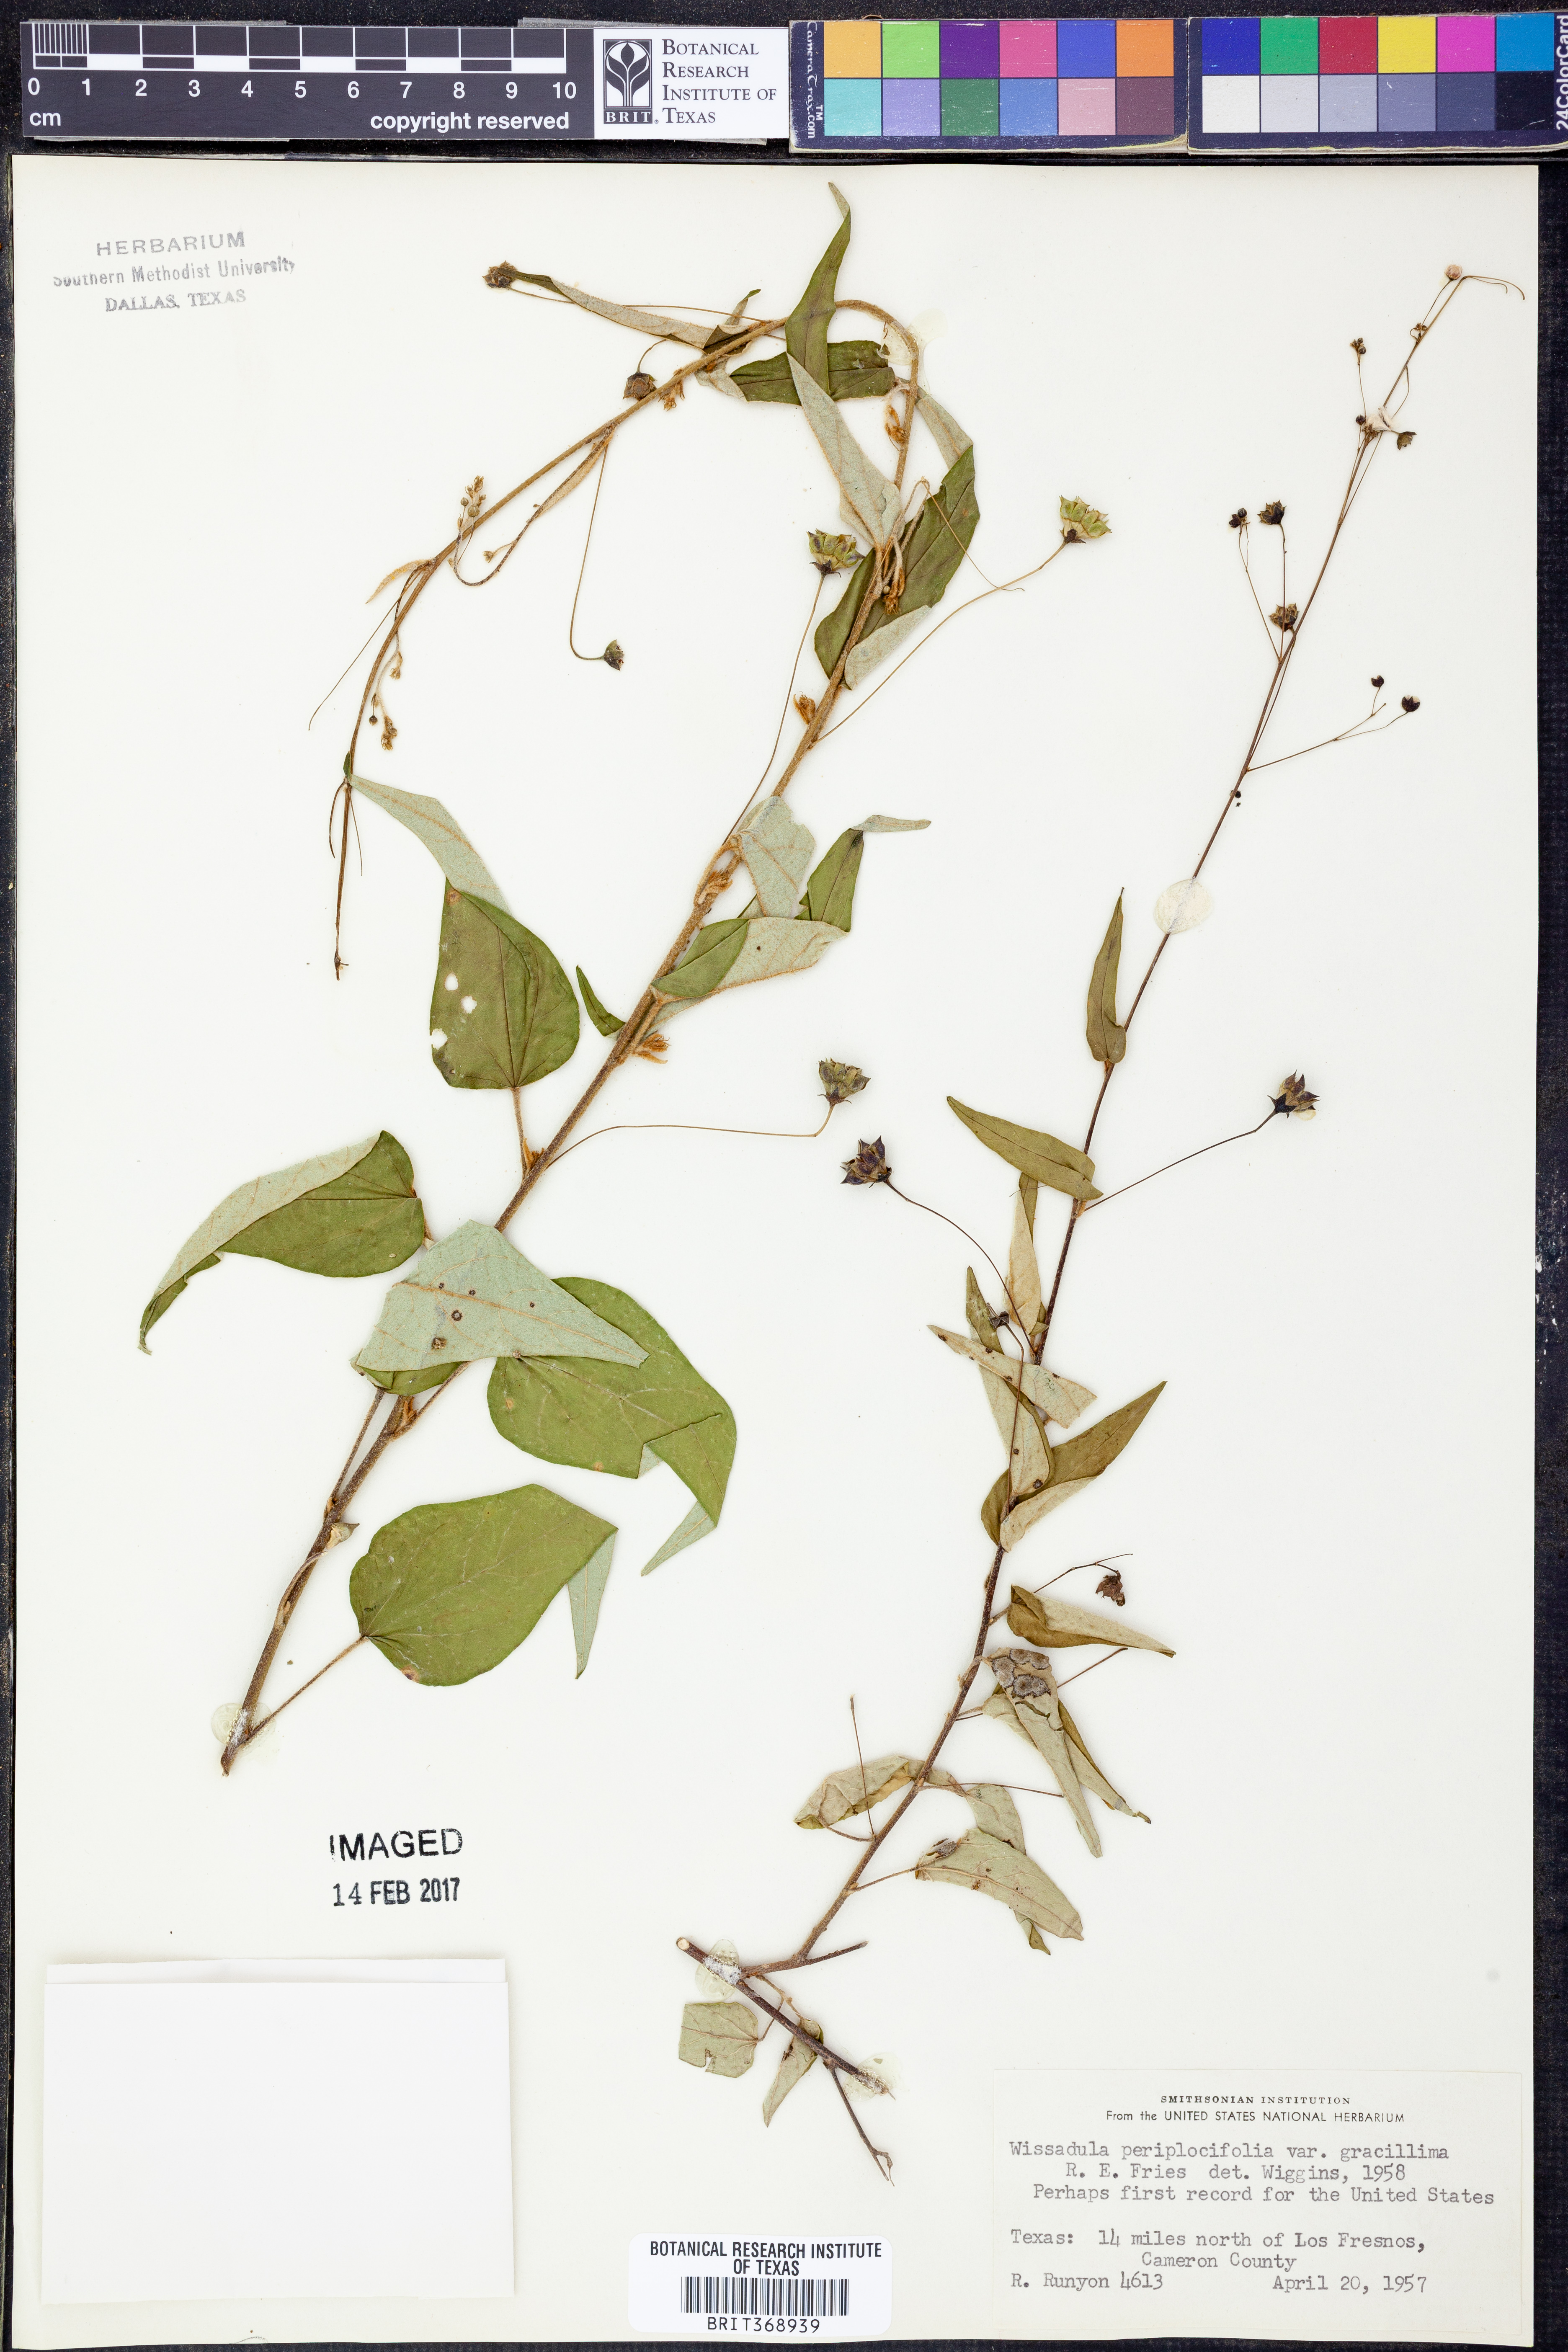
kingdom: Plantae
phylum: Tracheophyta
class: Magnoliopsida
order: Malvales
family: Malvaceae
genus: Wissadula
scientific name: Wissadula periplocifolia
